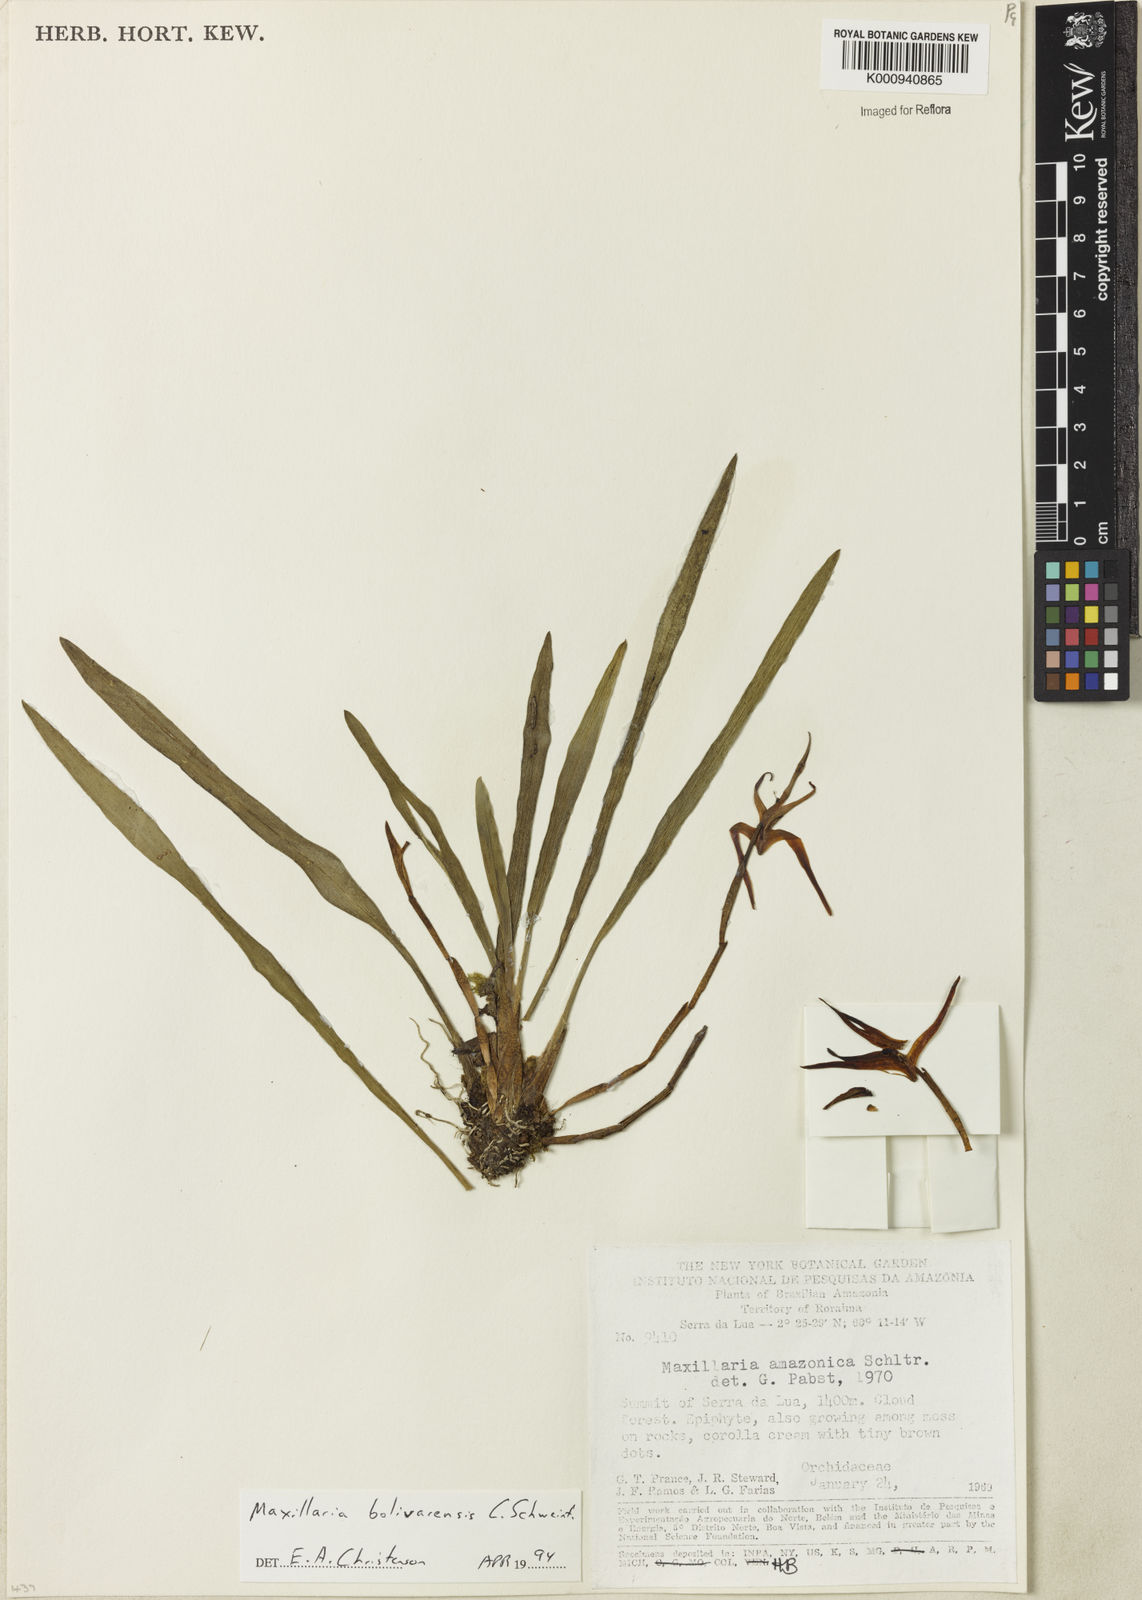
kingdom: Plantae
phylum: Tracheophyta
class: Liliopsida
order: Asparagales
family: Orchidaceae
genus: Maxillaria
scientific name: Maxillaria bolivarensis
